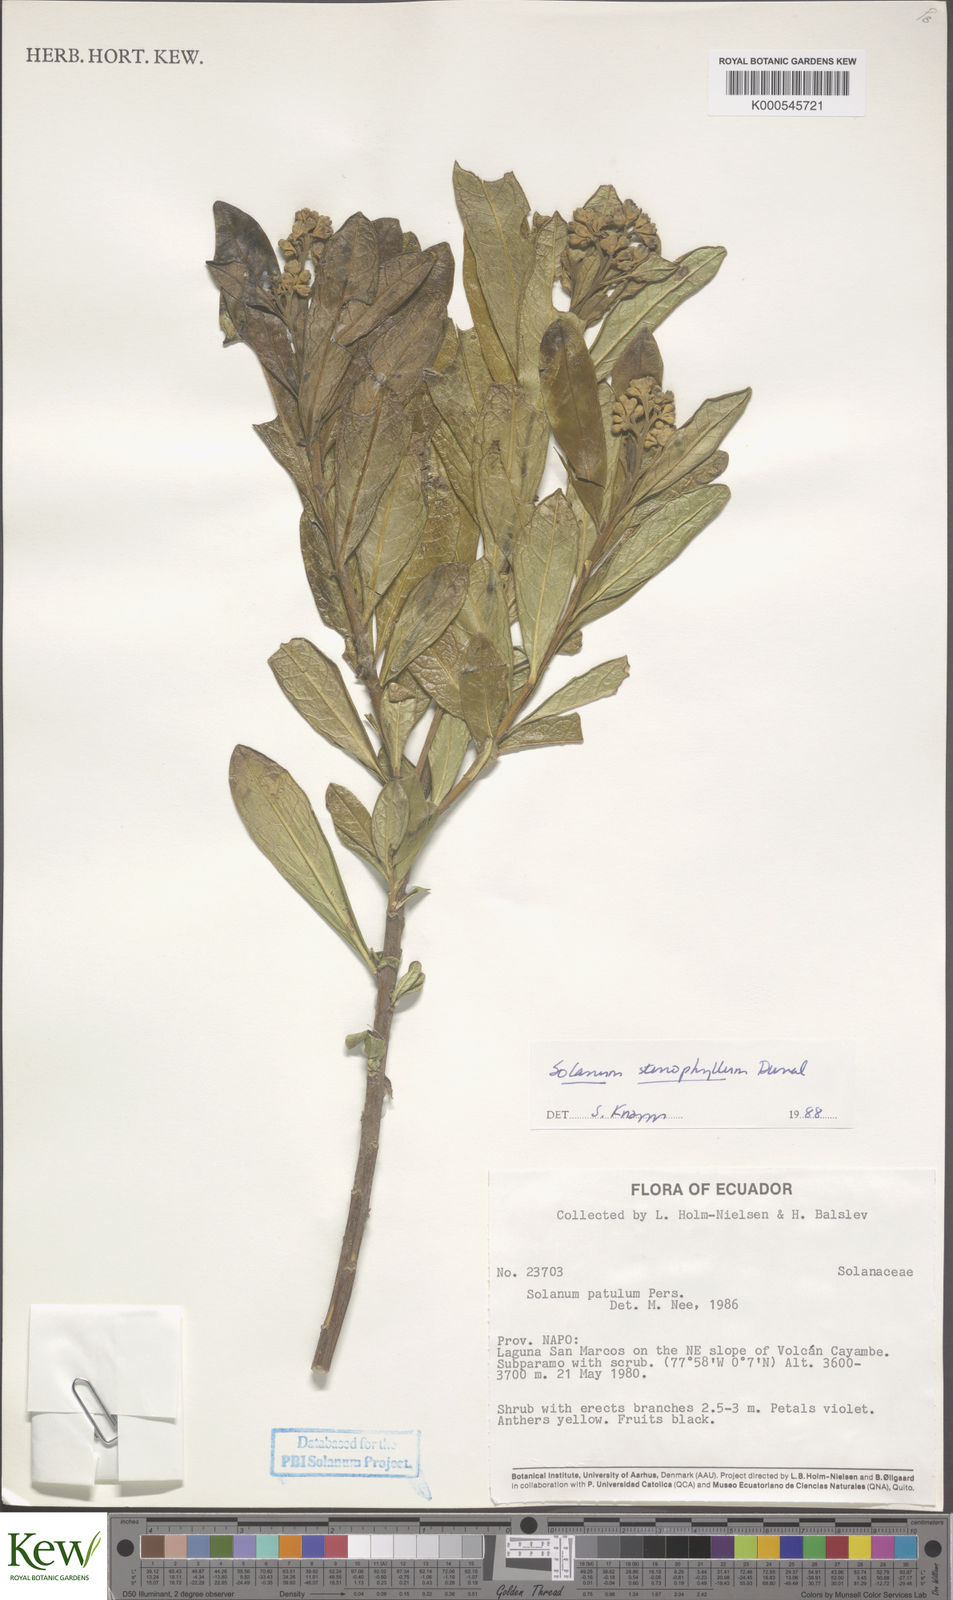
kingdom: Plantae
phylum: Tracheophyta
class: Magnoliopsida
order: Solanales
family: Solanaceae
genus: Solanum
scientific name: Solanum stenophyllum
